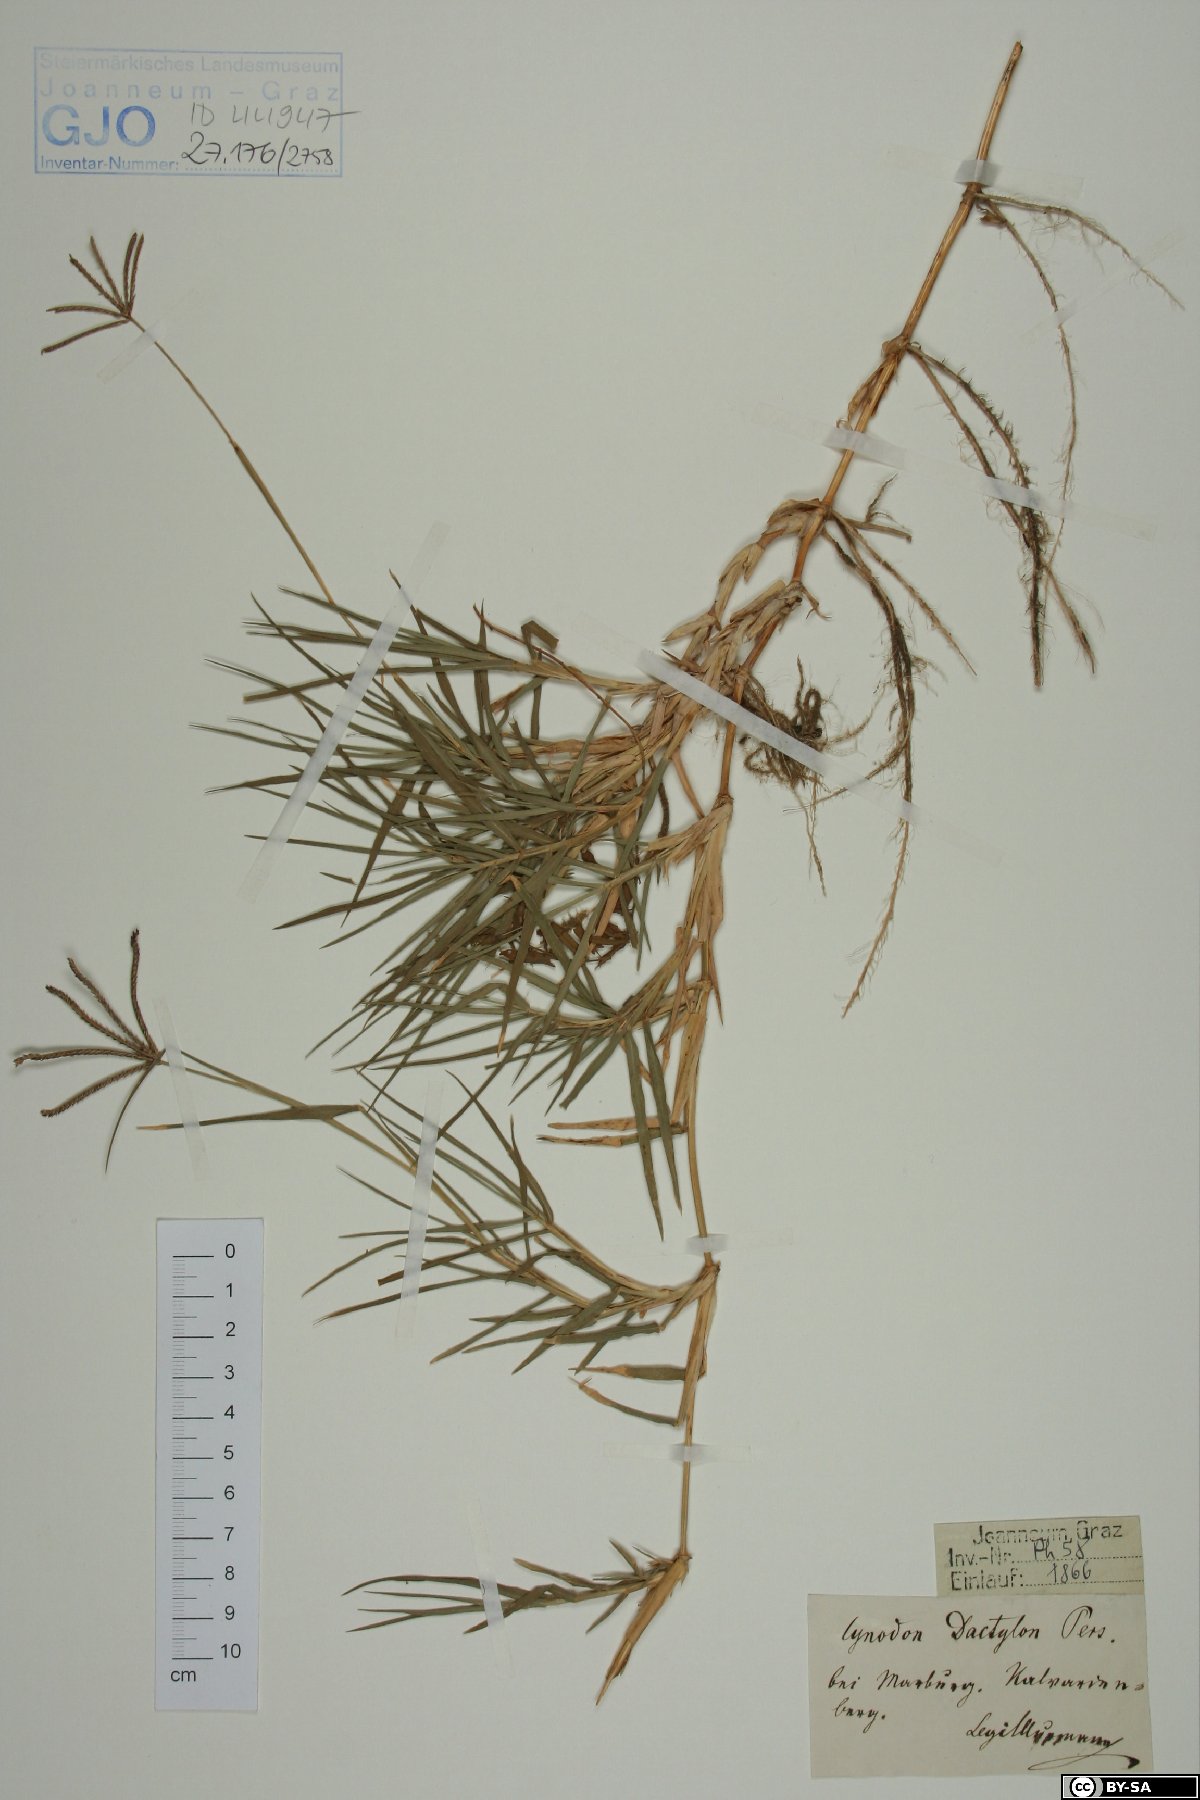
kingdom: Plantae
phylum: Tracheophyta
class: Liliopsida
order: Poales
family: Poaceae
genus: Cynodon
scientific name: Cynodon dactylon
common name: Bermuda grass
